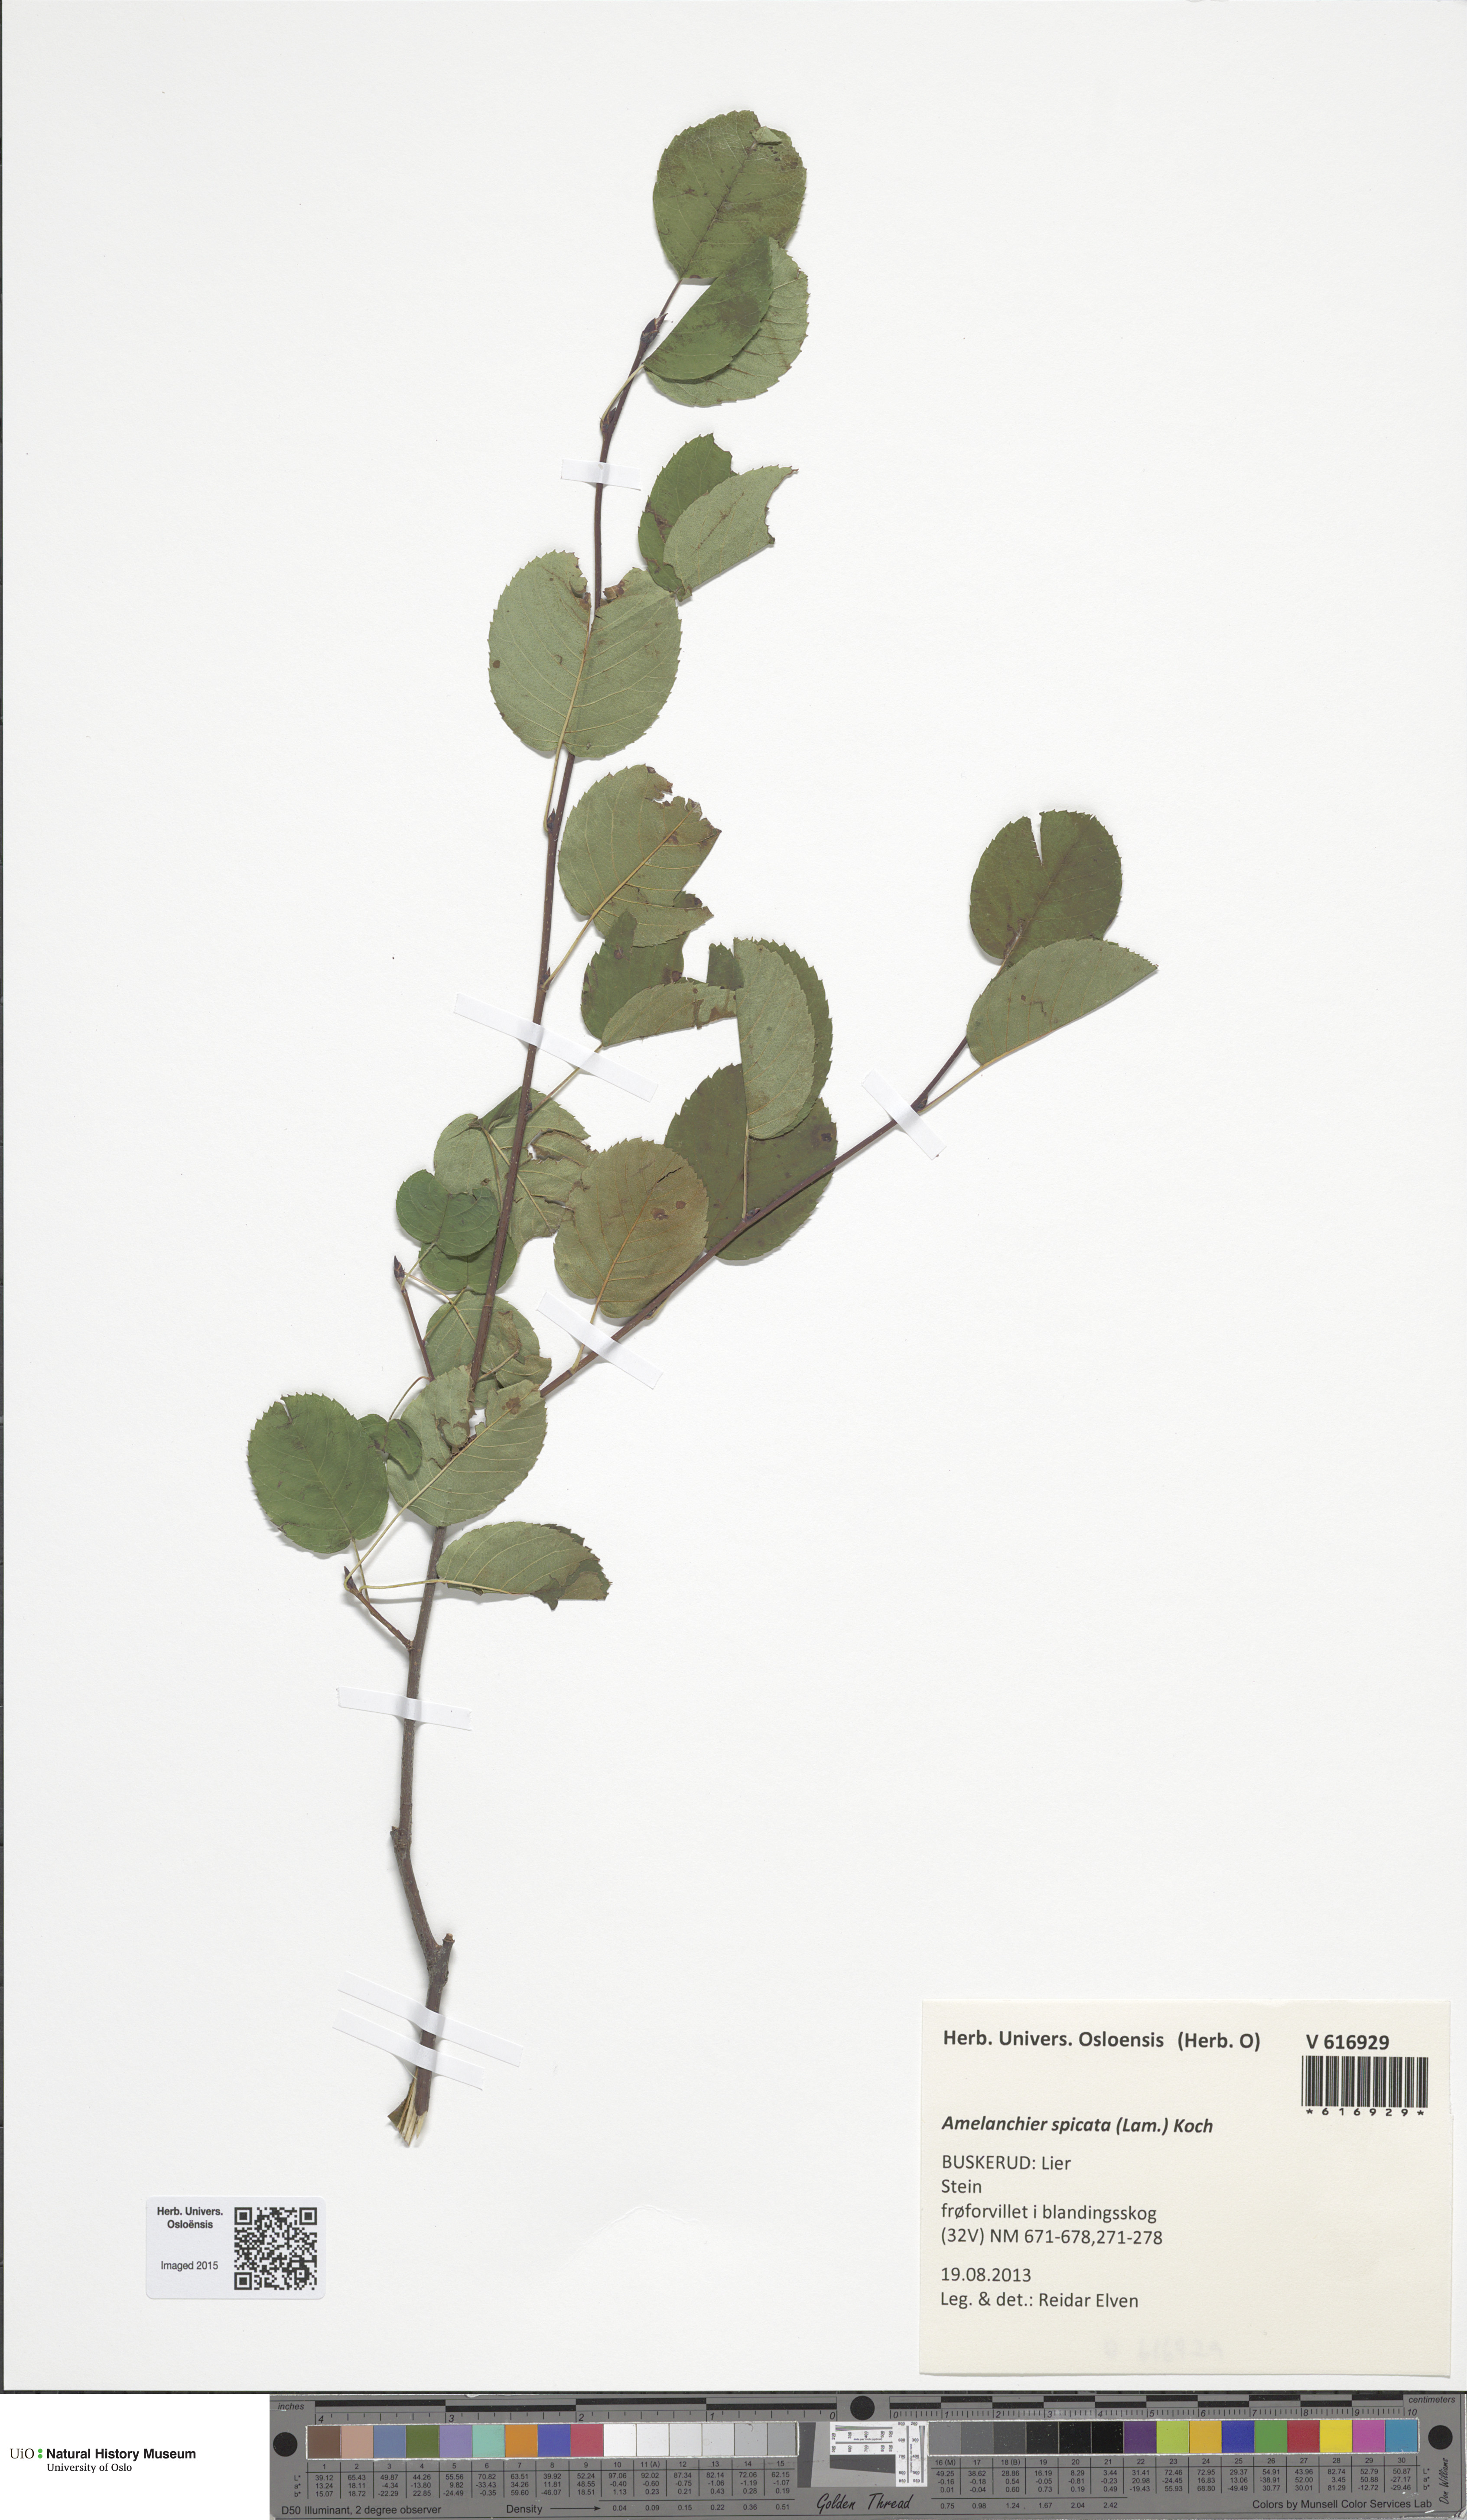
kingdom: Plantae
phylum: Tracheophyta
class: Magnoliopsida
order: Rosales
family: Rosaceae
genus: Amelanchier
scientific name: Amelanchier humilis
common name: Low juneberry
